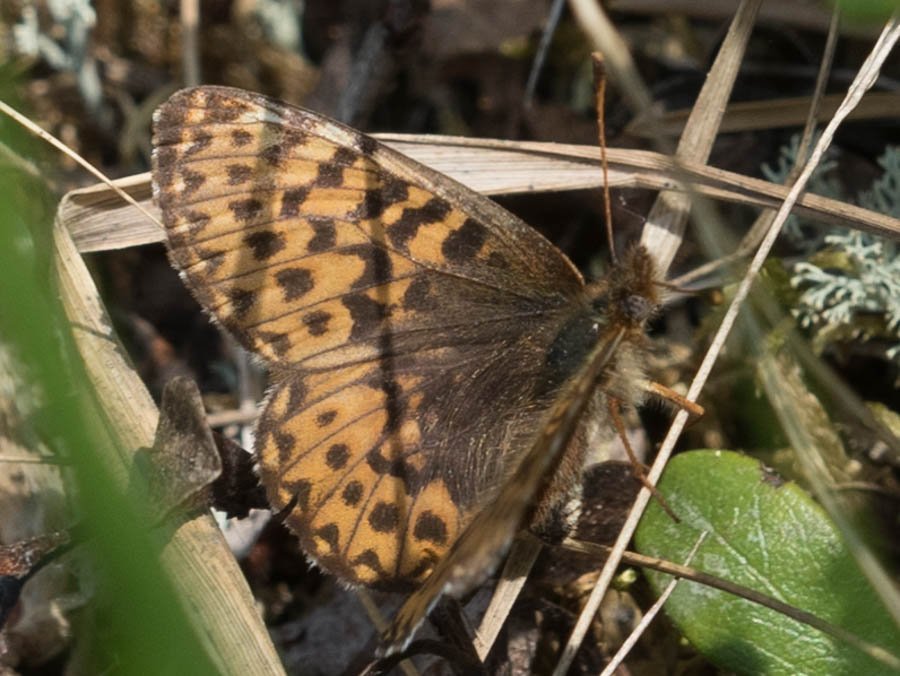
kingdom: Animalia
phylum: Arthropoda
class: Insecta
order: Lepidoptera
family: Nymphalidae
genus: Boloria
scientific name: Boloria freija
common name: Freija Fritillary
